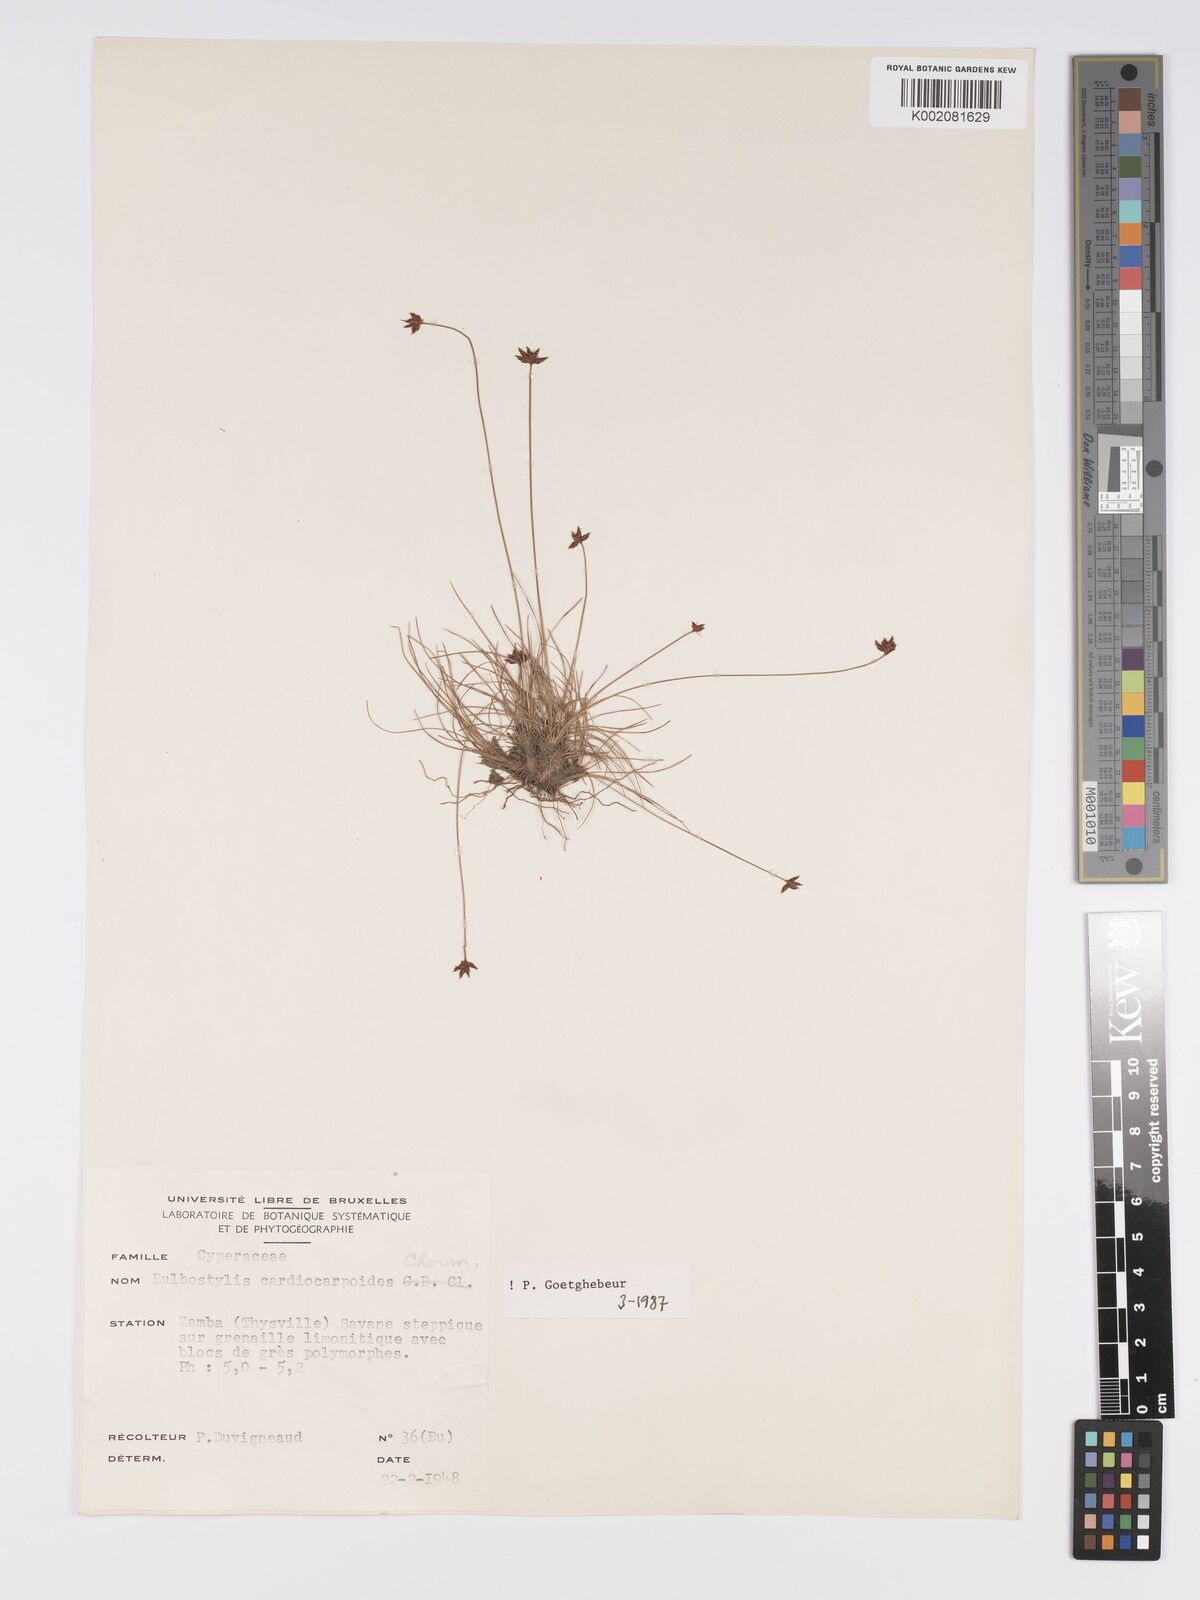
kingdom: Plantae
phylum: Tracheophyta
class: Liliopsida
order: Poales
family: Cyperaceae
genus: Bulbostylis
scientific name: Bulbostylis cardiocarpoides
